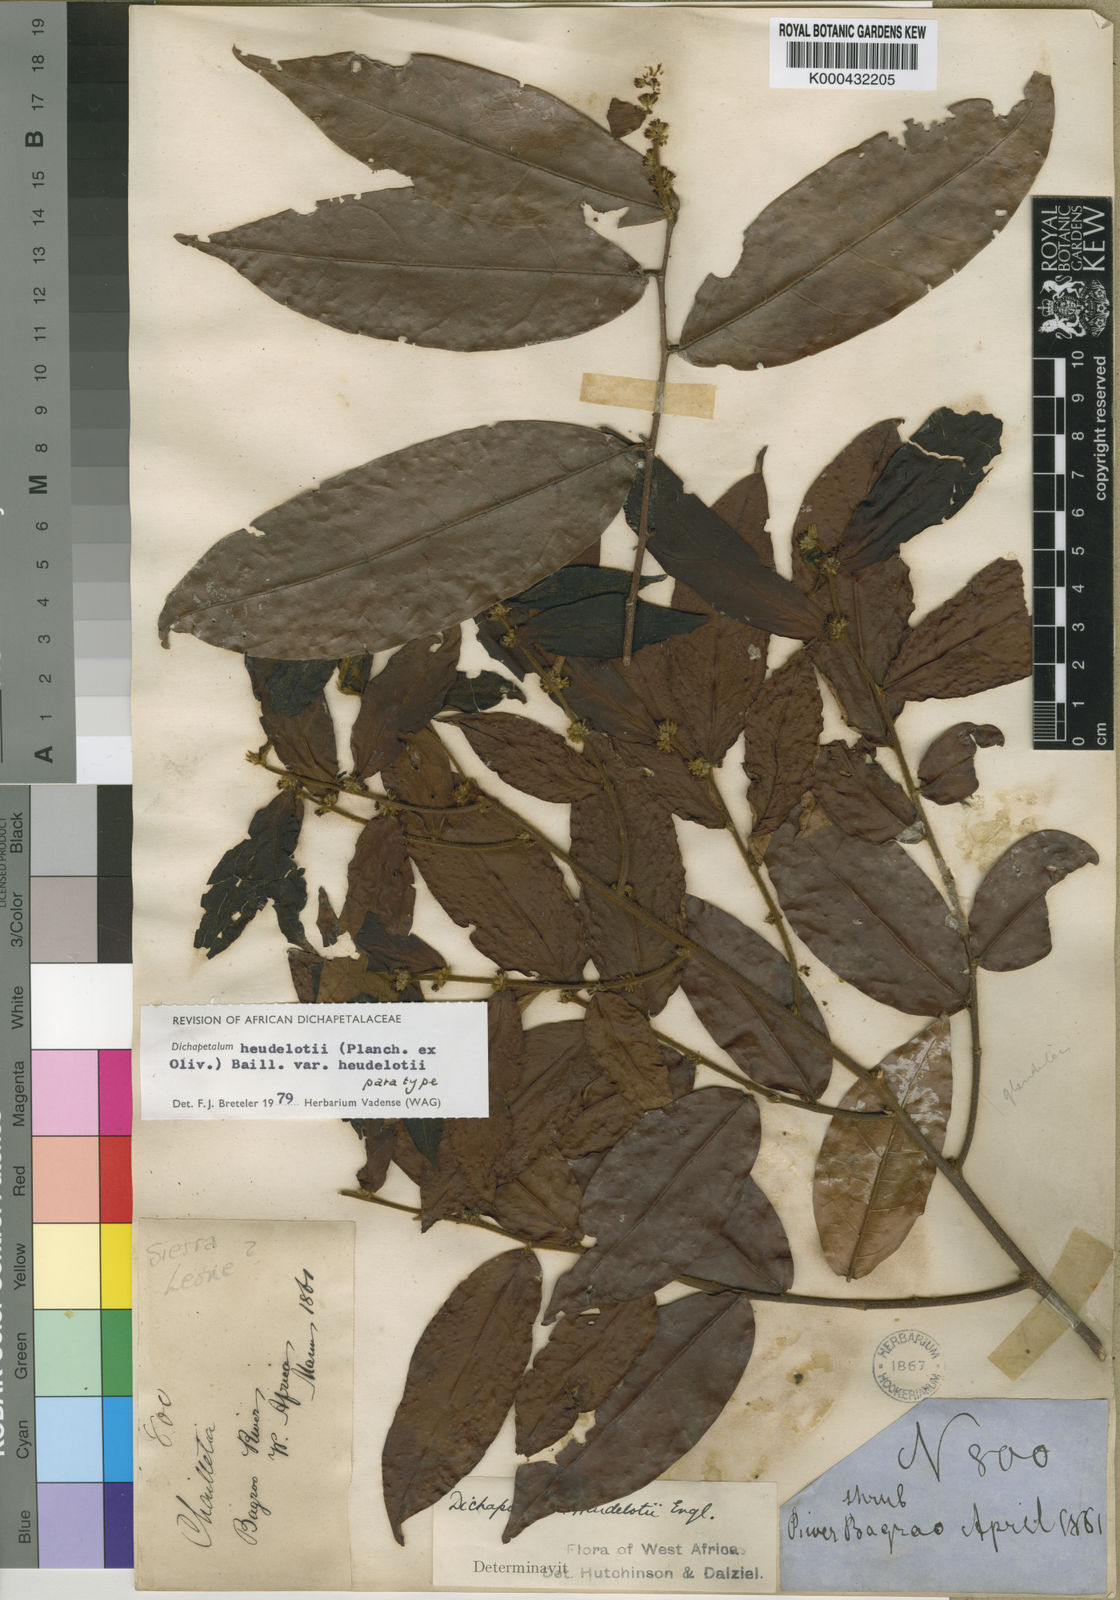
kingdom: Plantae
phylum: Tracheophyta
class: Magnoliopsida
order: Malpighiales
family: Dichapetalaceae
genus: Dichapetalum
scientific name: Dichapetalum heudelotii
